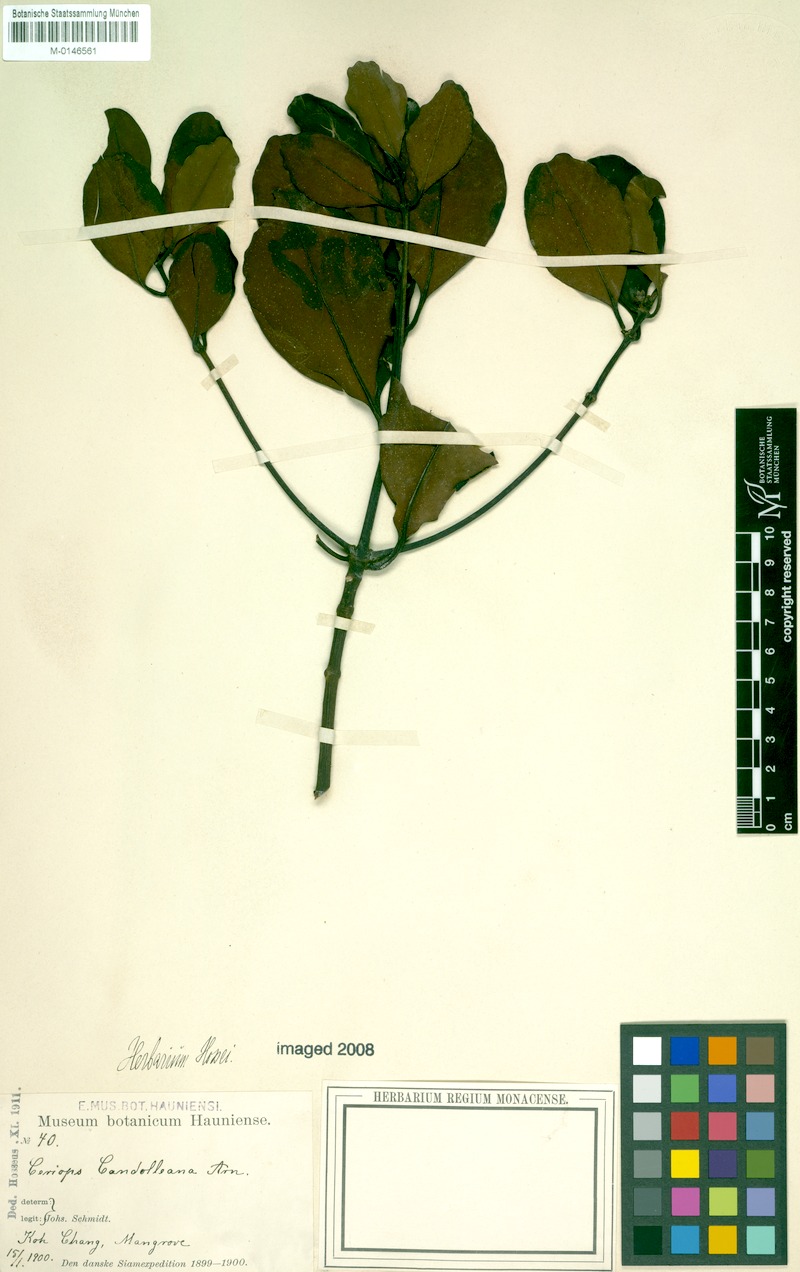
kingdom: Plantae
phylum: Tracheophyta
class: Magnoliopsida
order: Malpighiales
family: Rhizophoraceae
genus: Ceriops
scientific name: Ceriops tagal
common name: Spurred mangrove
